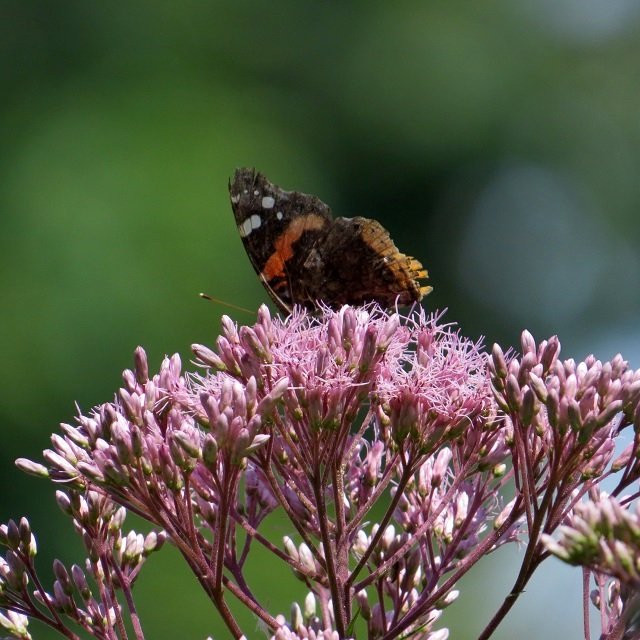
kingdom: Animalia
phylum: Arthropoda
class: Insecta
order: Lepidoptera
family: Nymphalidae
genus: Vanessa
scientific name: Vanessa atalanta
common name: Red Admiral
